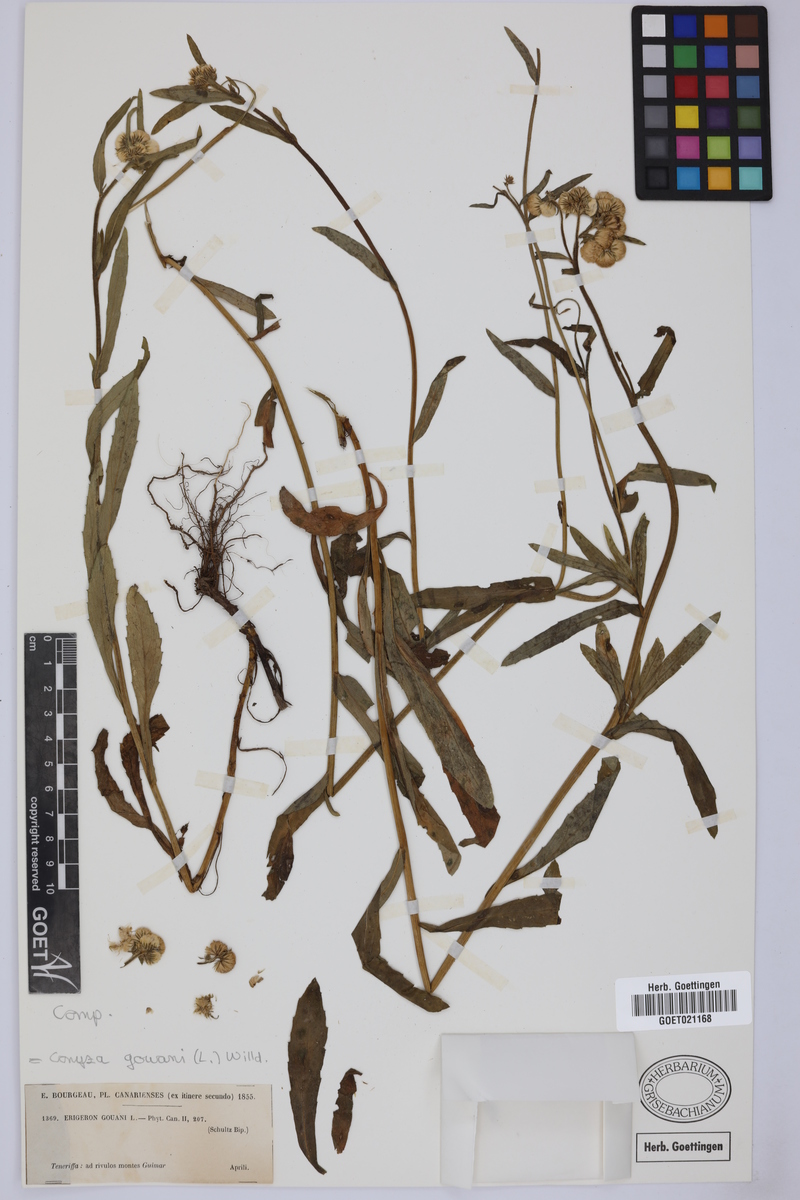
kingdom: Plantae
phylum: Tracheophyta
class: Magnoliopsida
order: Asterales
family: Asteraceae
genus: Eschenbachia
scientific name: Eschenbachia gouanii
